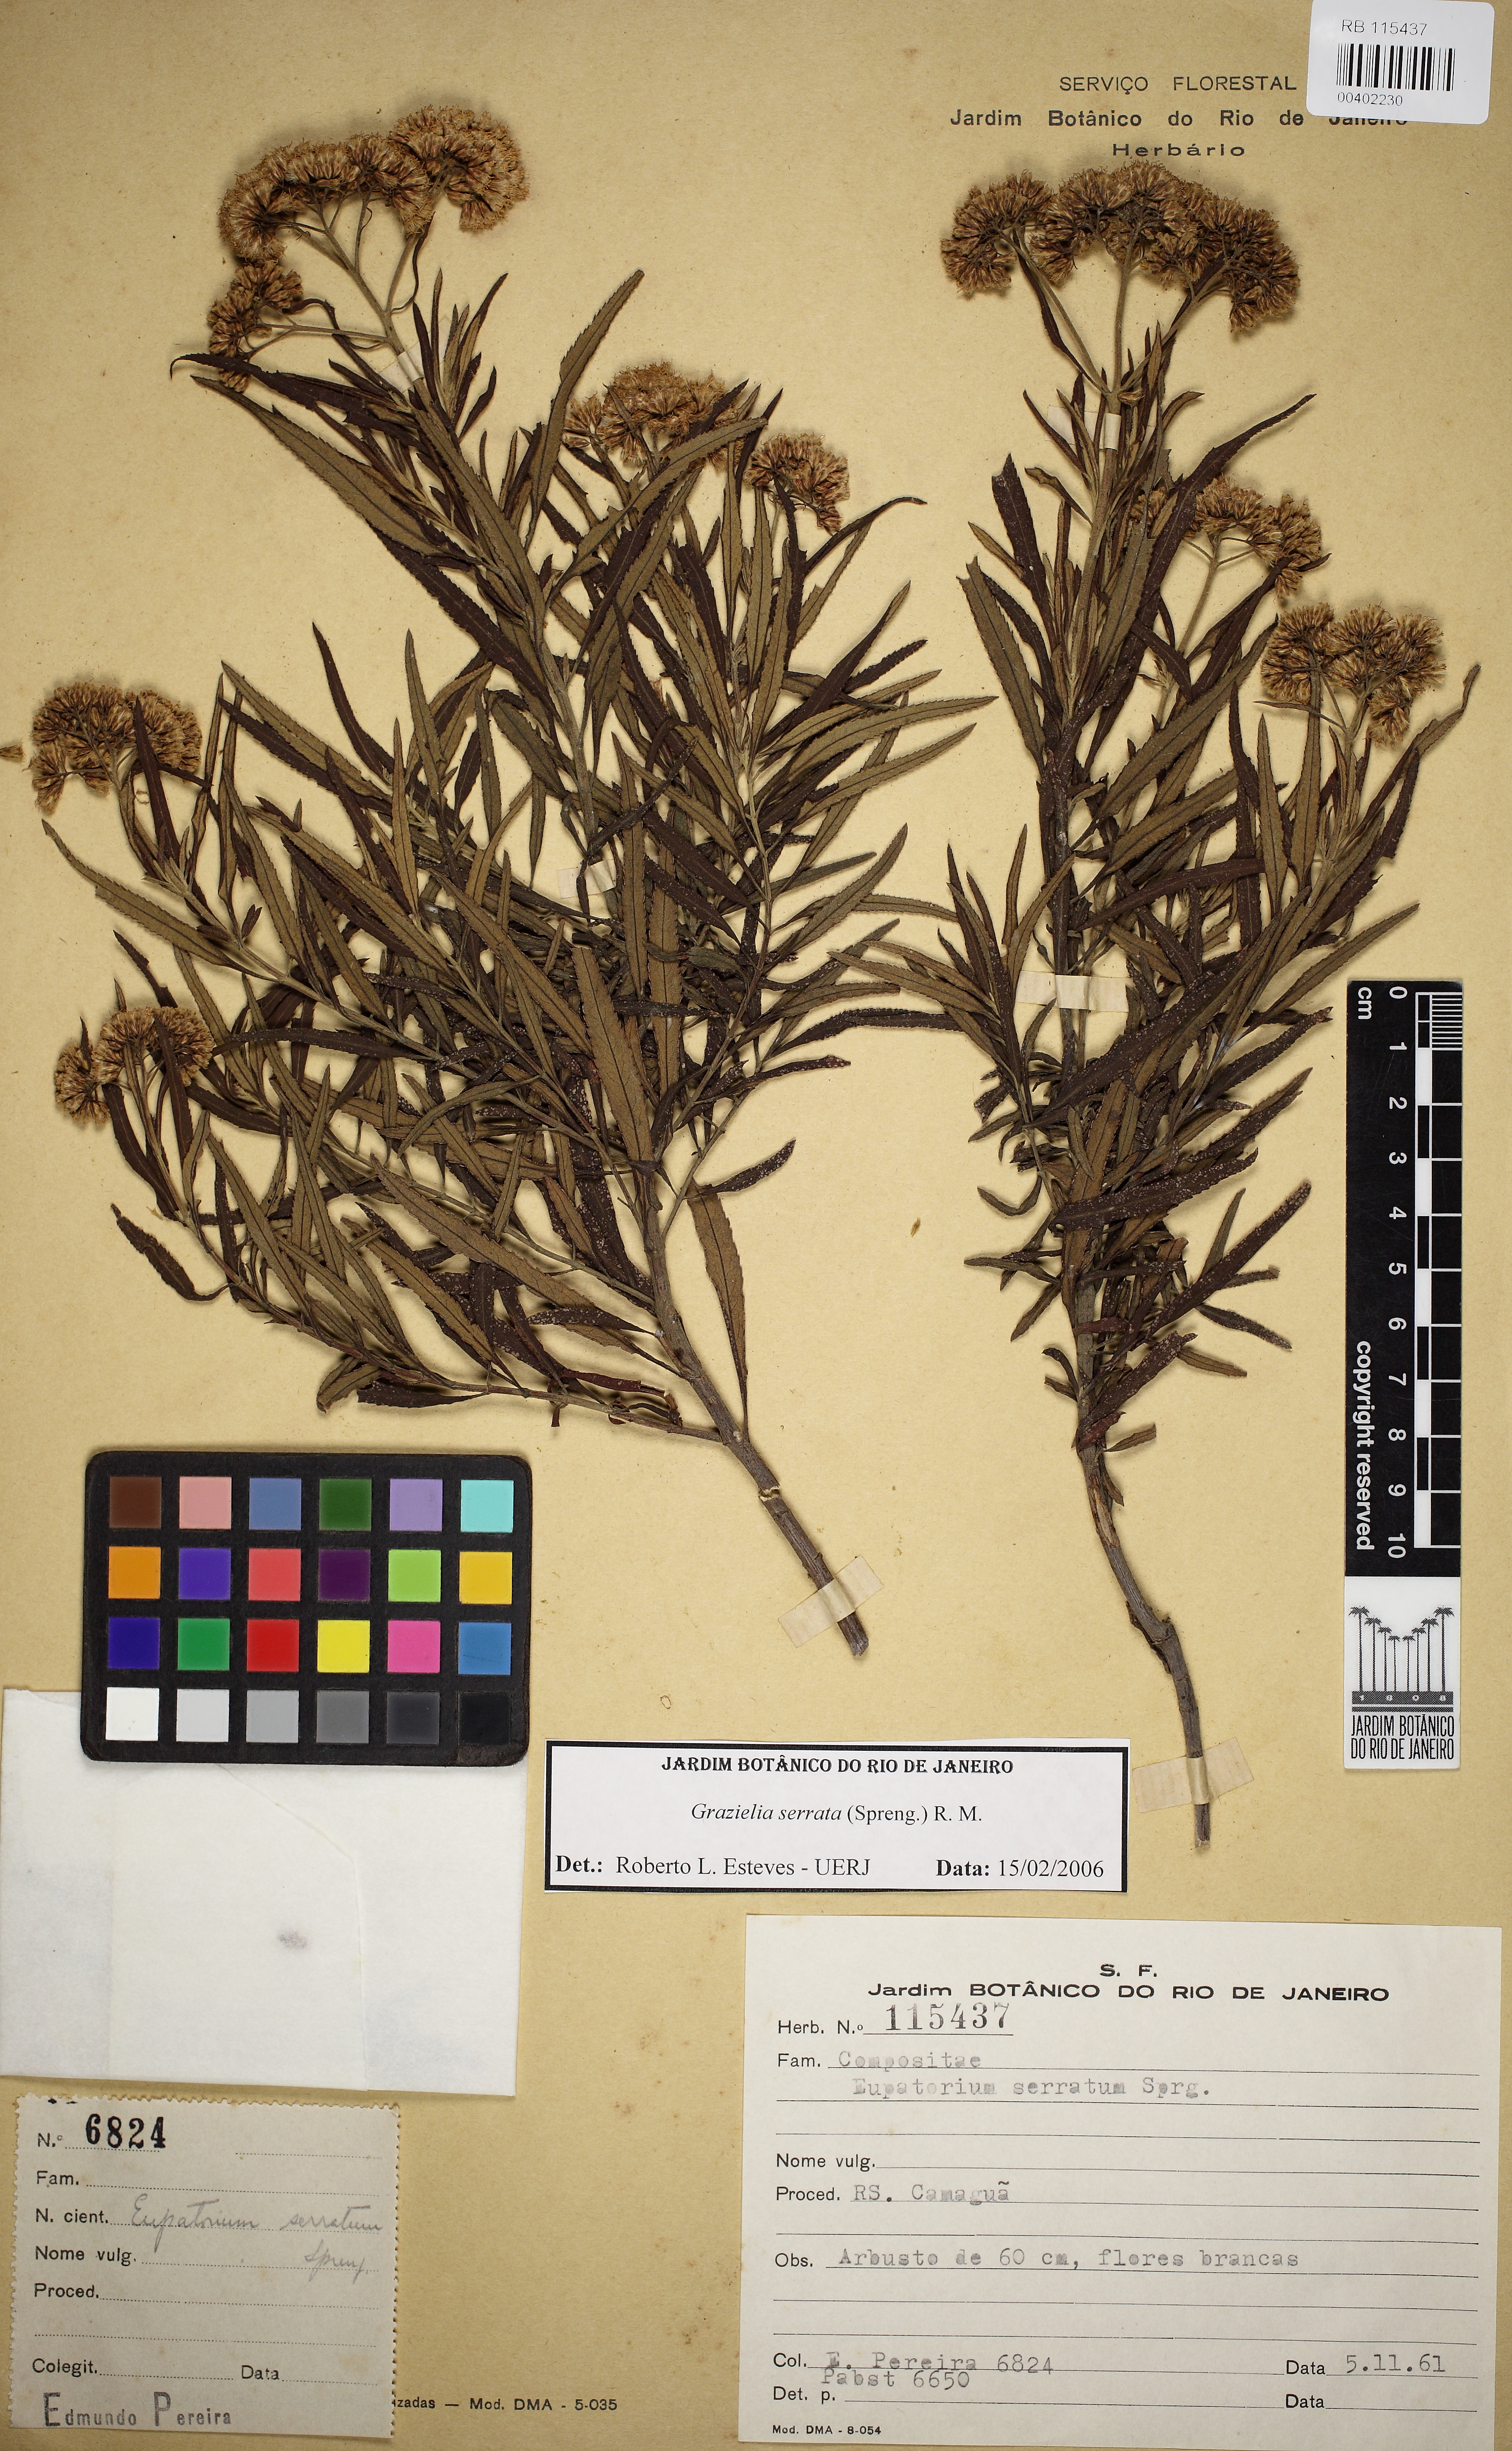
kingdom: Plantae
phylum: Tracheophyta
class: Magnoliopsida
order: Asterales
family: Asteraceae
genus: Grazielia
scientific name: Grazielia serrata
